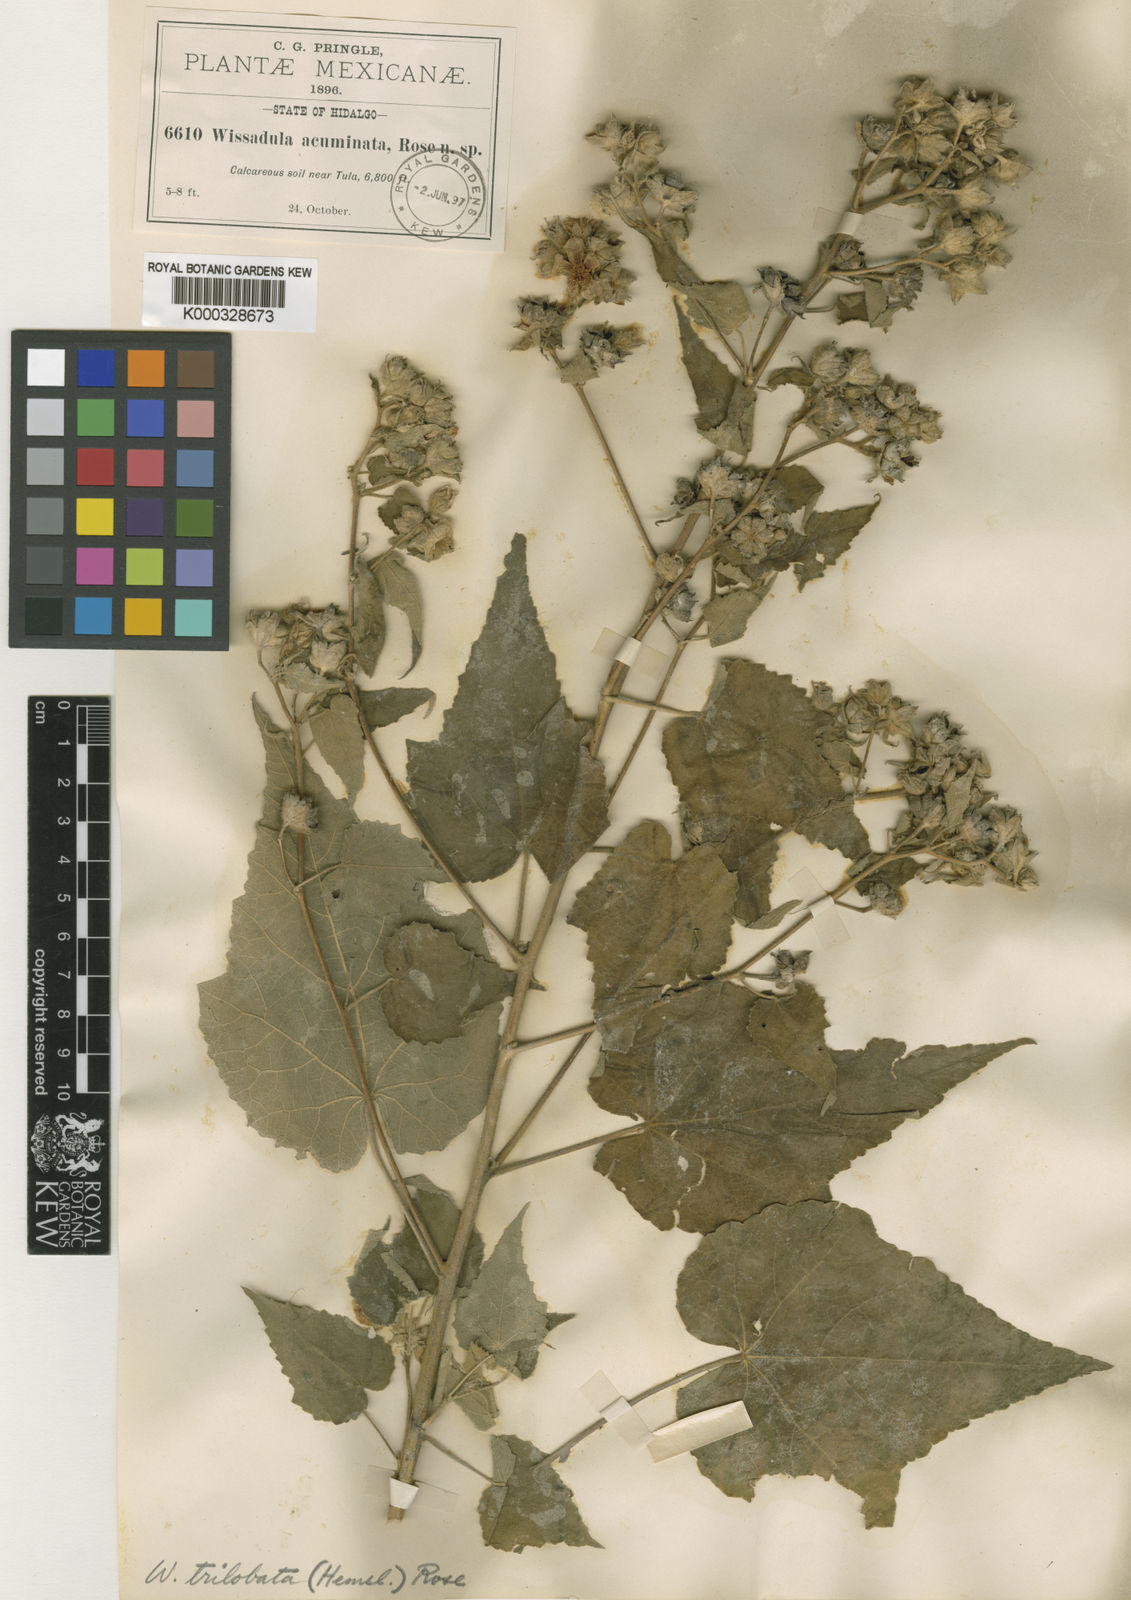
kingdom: Plantae
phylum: Tracheophyta
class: Magnoliopsida
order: Malvales
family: Malvaceae
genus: Allowissadula
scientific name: Allowissadula sessei
